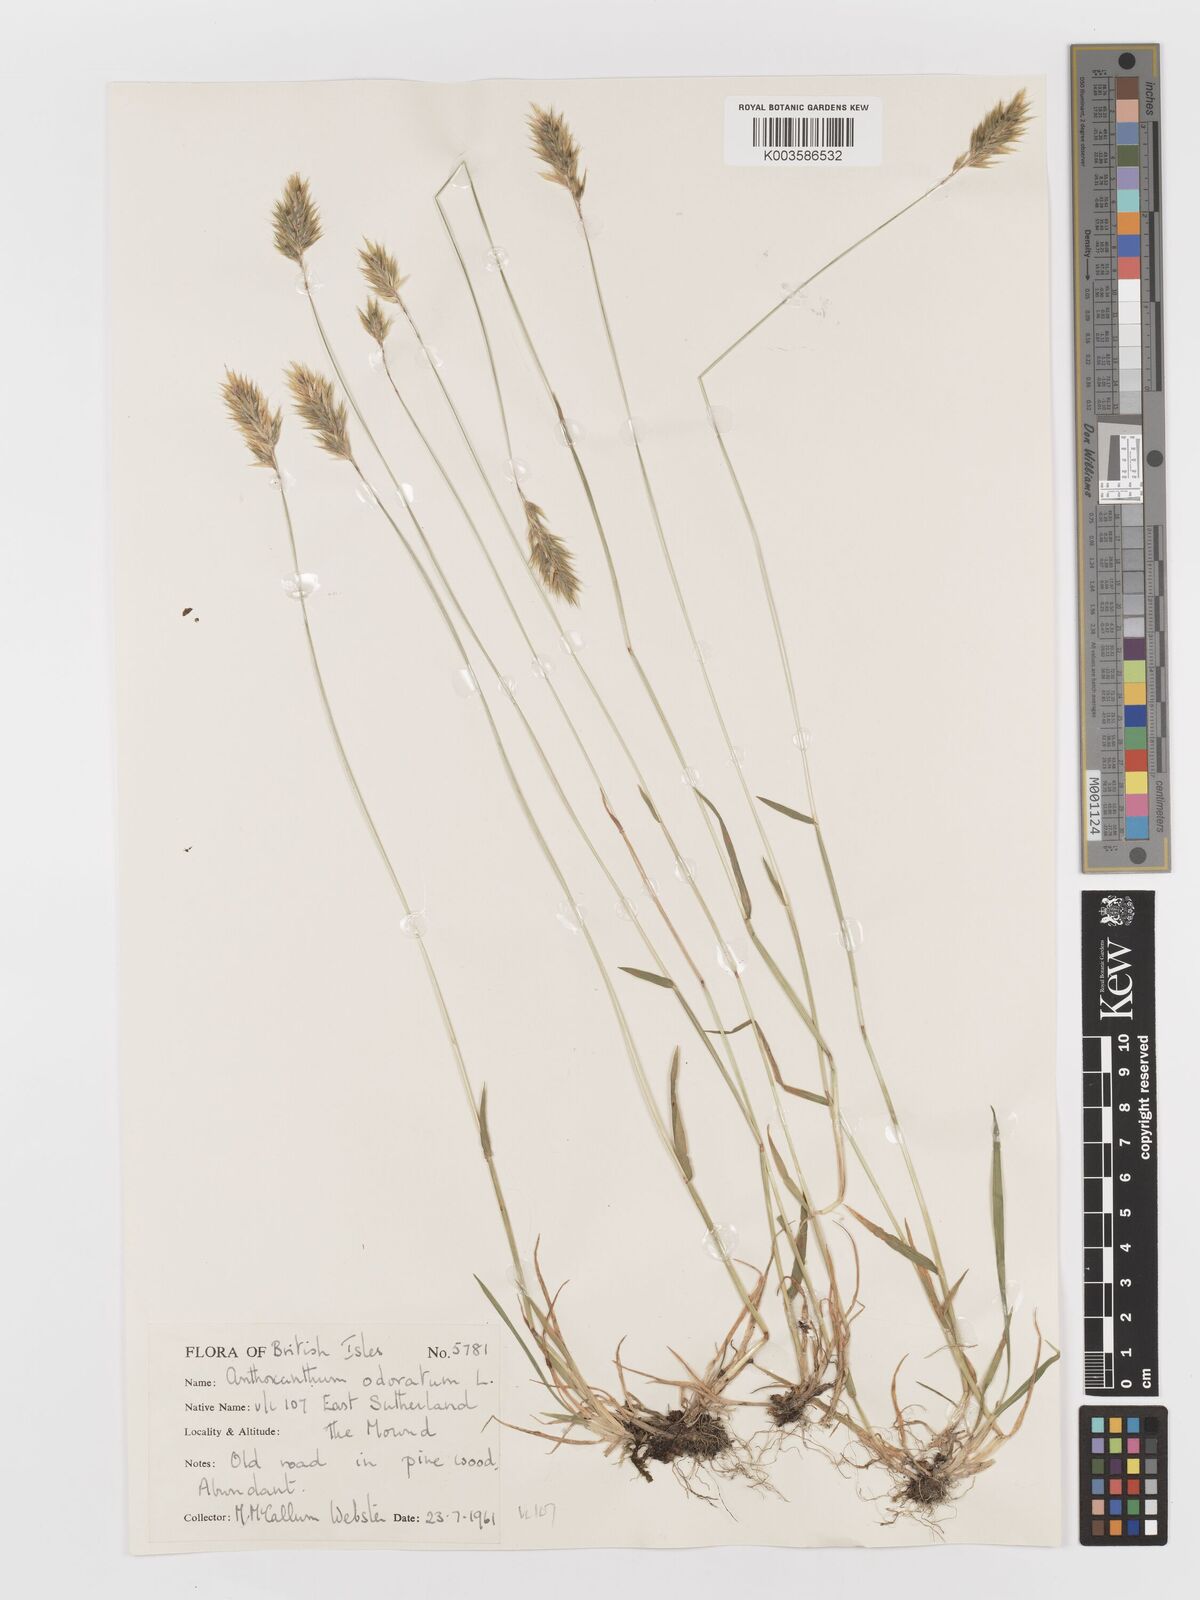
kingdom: Plantae
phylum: Tracheophyta
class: Liliopsida
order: Poales
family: Poaceae
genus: Anthoxanthum
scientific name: Anthoxanthum odoratum
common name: Sweet vernalgrass
